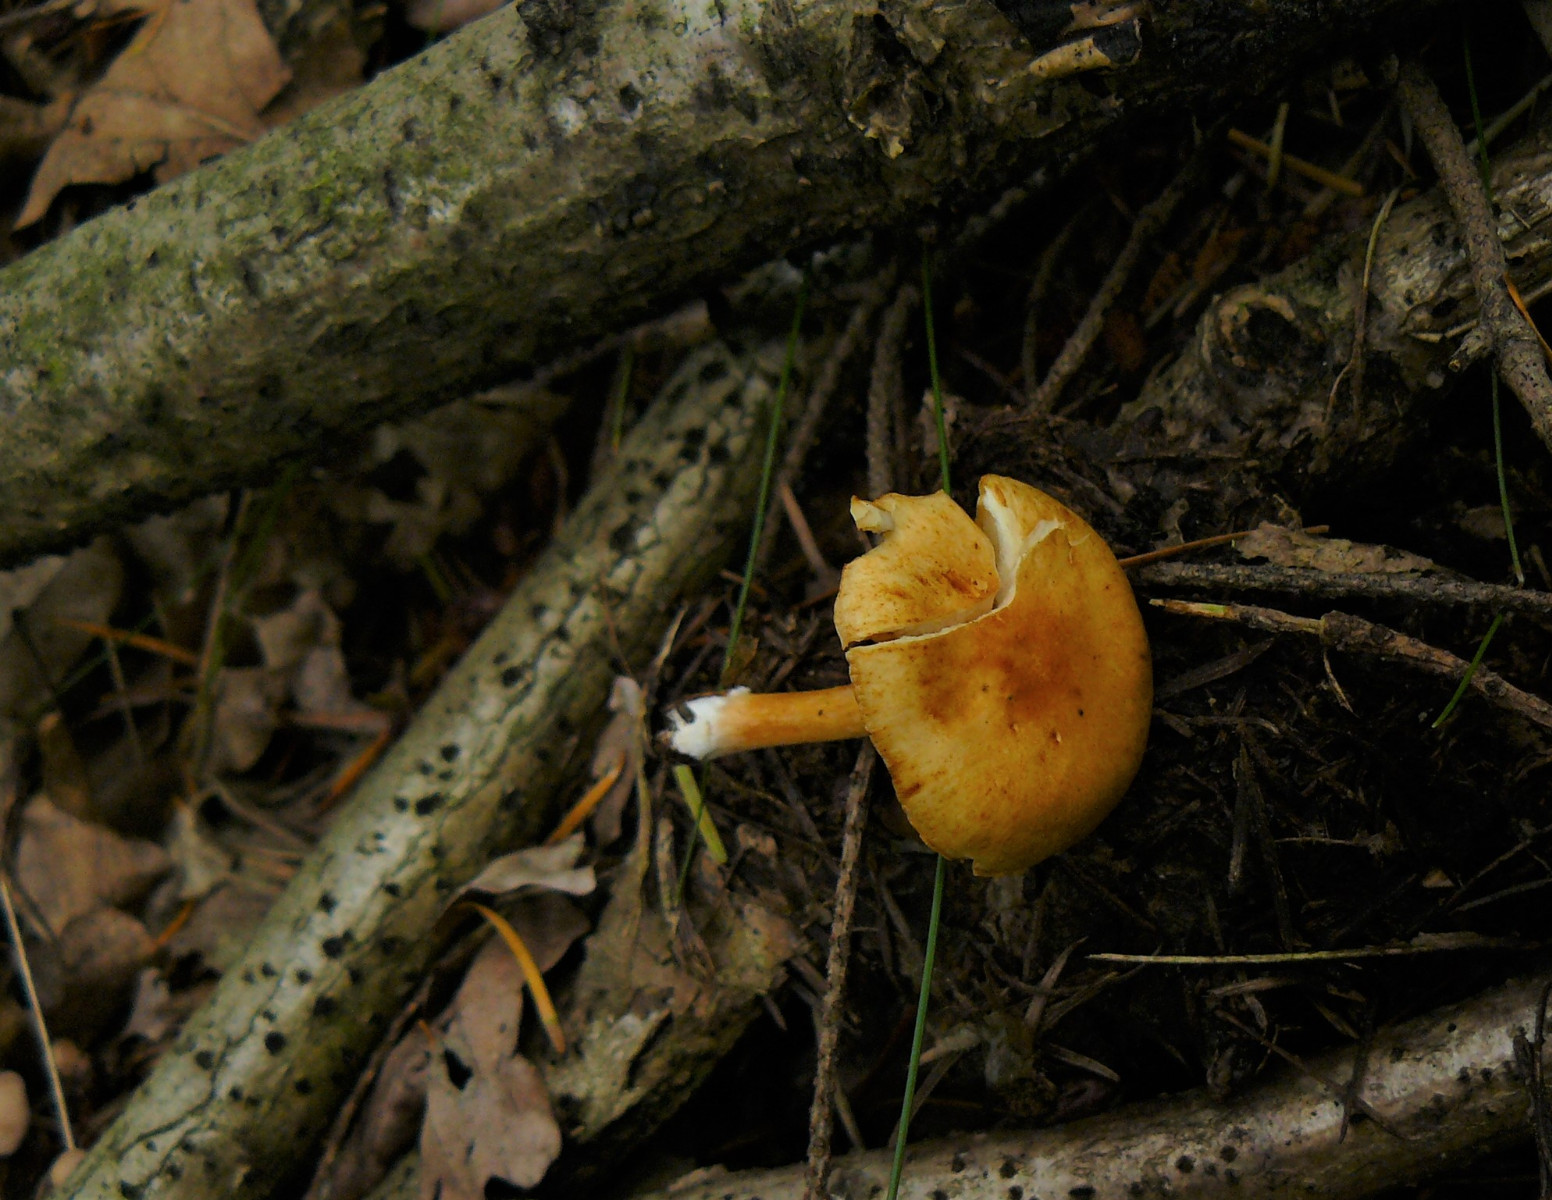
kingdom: Fungi
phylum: Basidiomycota
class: Agaricomycetes
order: Agaricales
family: Hymenogastraceae
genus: Gymnopilus
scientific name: Gymnopilus penetrans
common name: plettet flammehat
